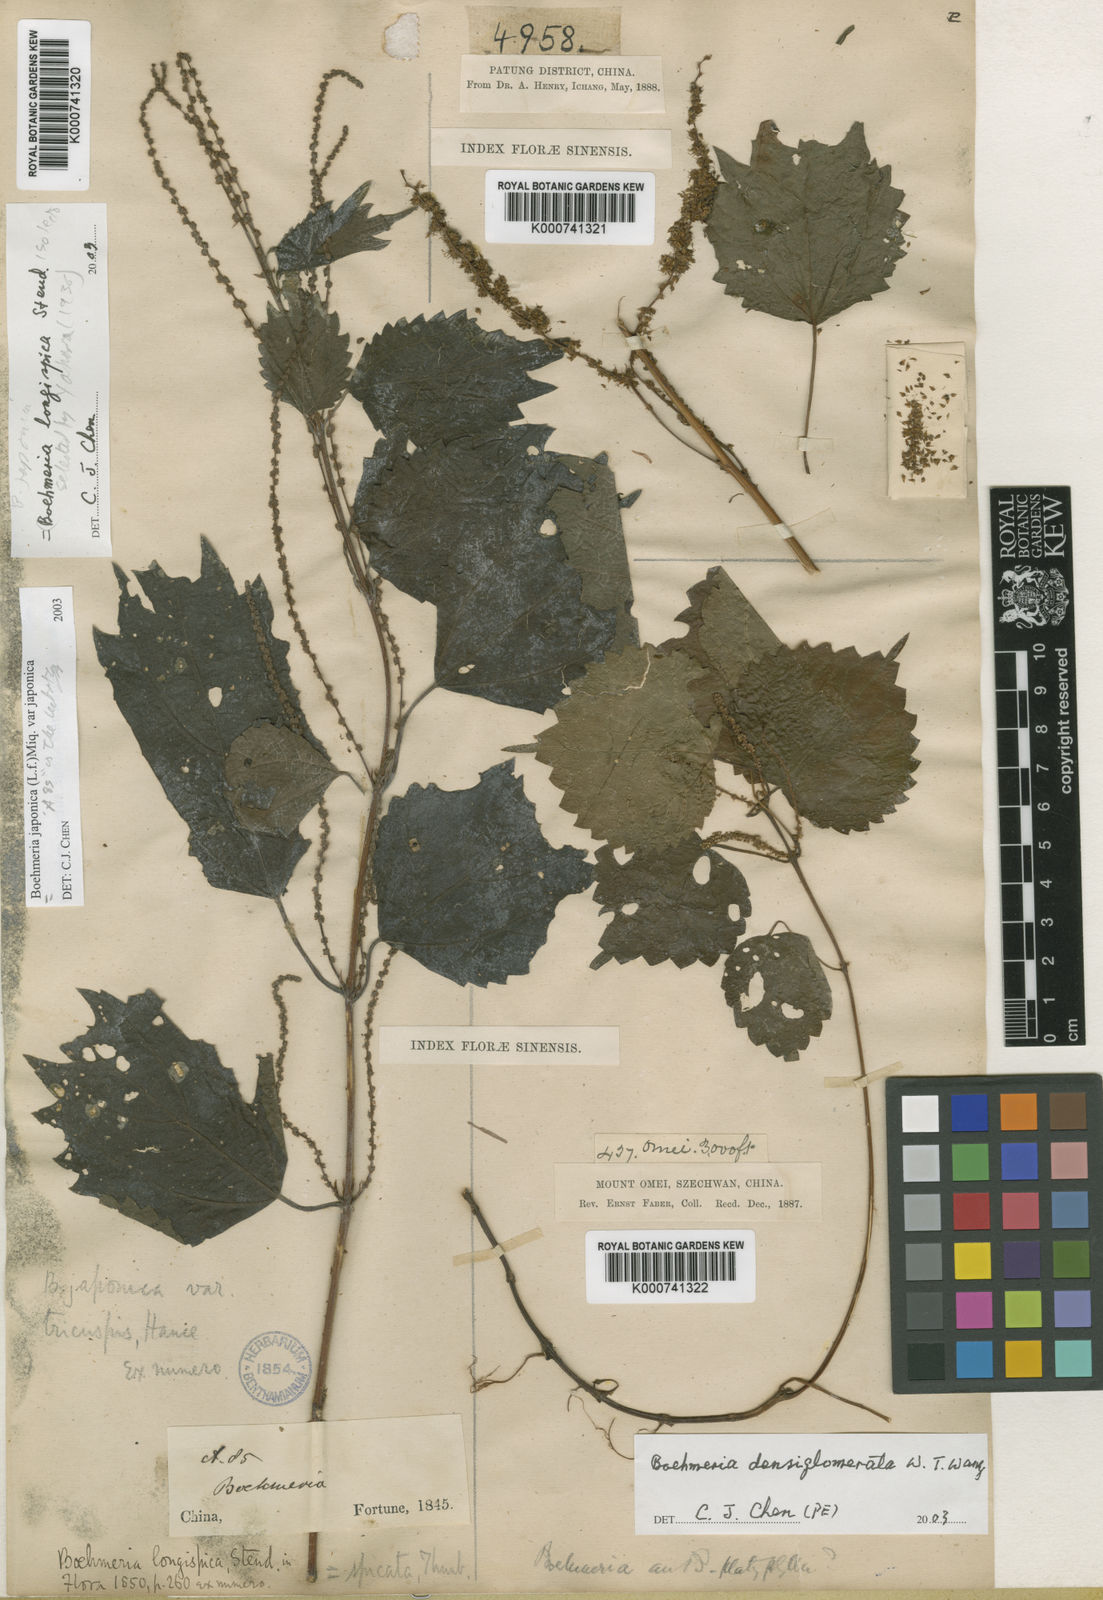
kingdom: Plantae
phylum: Tracheophyta
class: Magnoliopsida
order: Rosales
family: Urticaceae
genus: Boehmeria
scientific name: Boehmeria japonica
